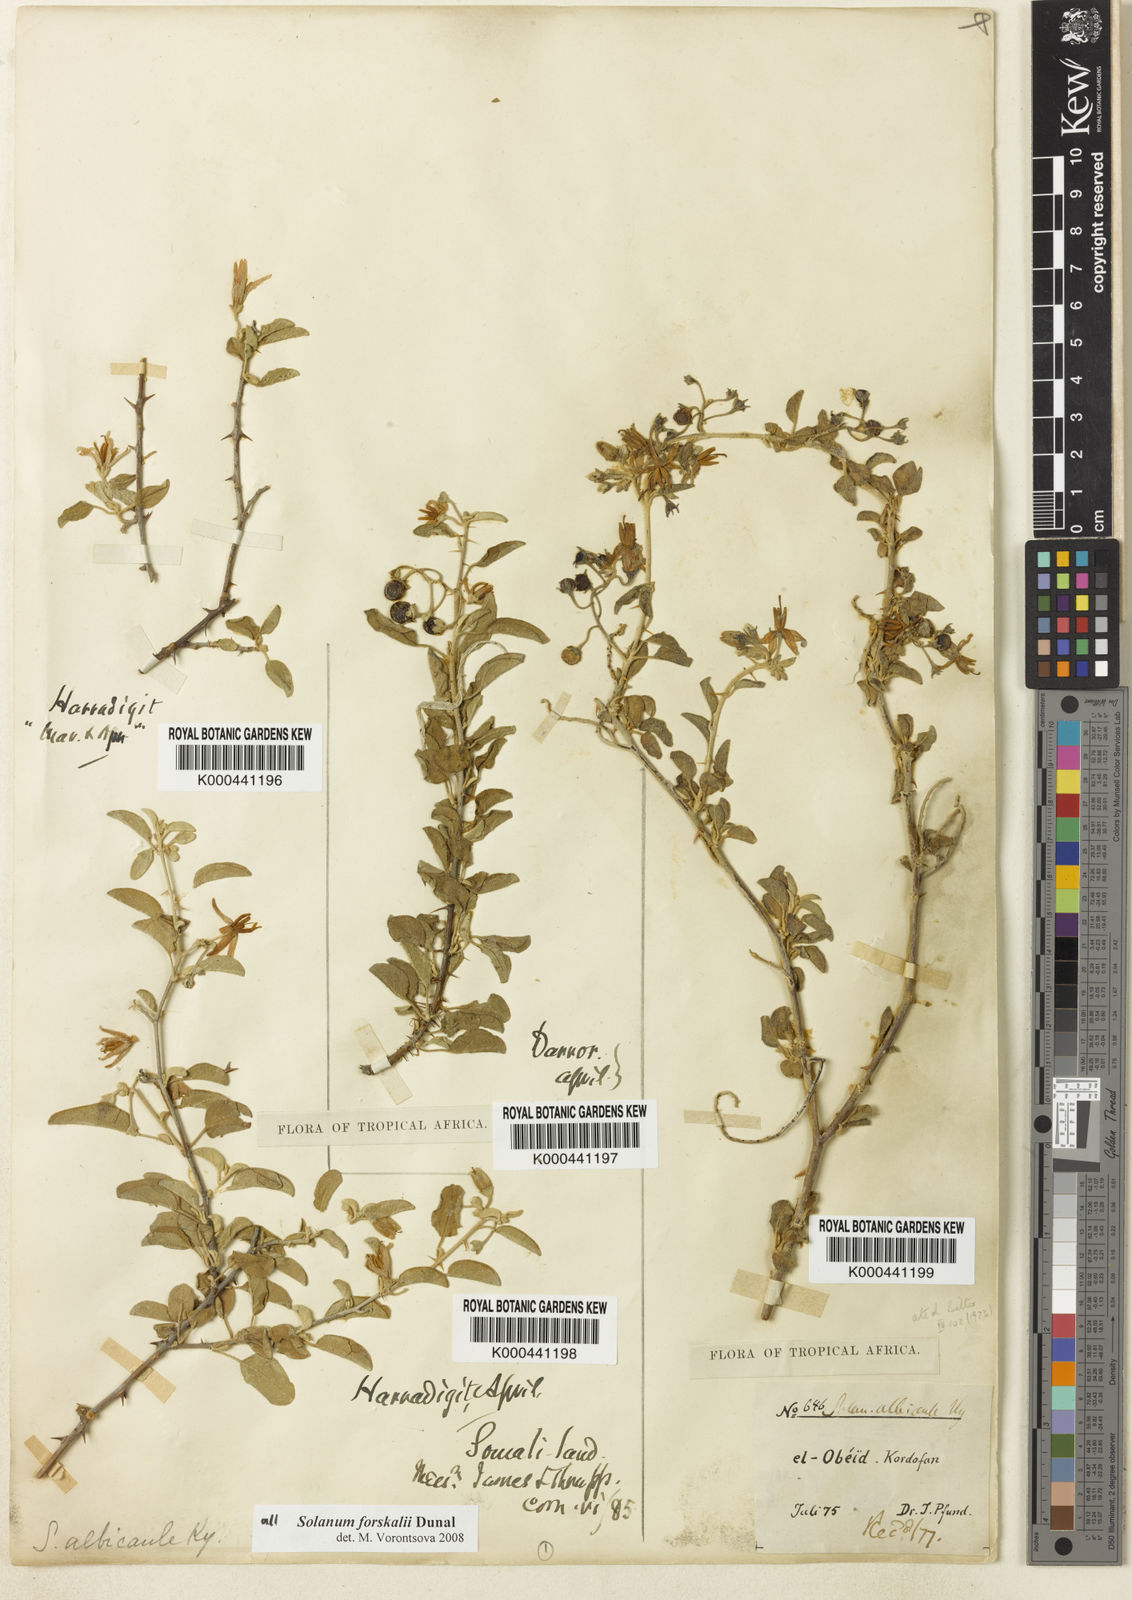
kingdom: Plantae
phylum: Tracheophyta
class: Magnoliopsida
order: Solanales
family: Solanaceae
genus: Solanum
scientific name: Solanum
